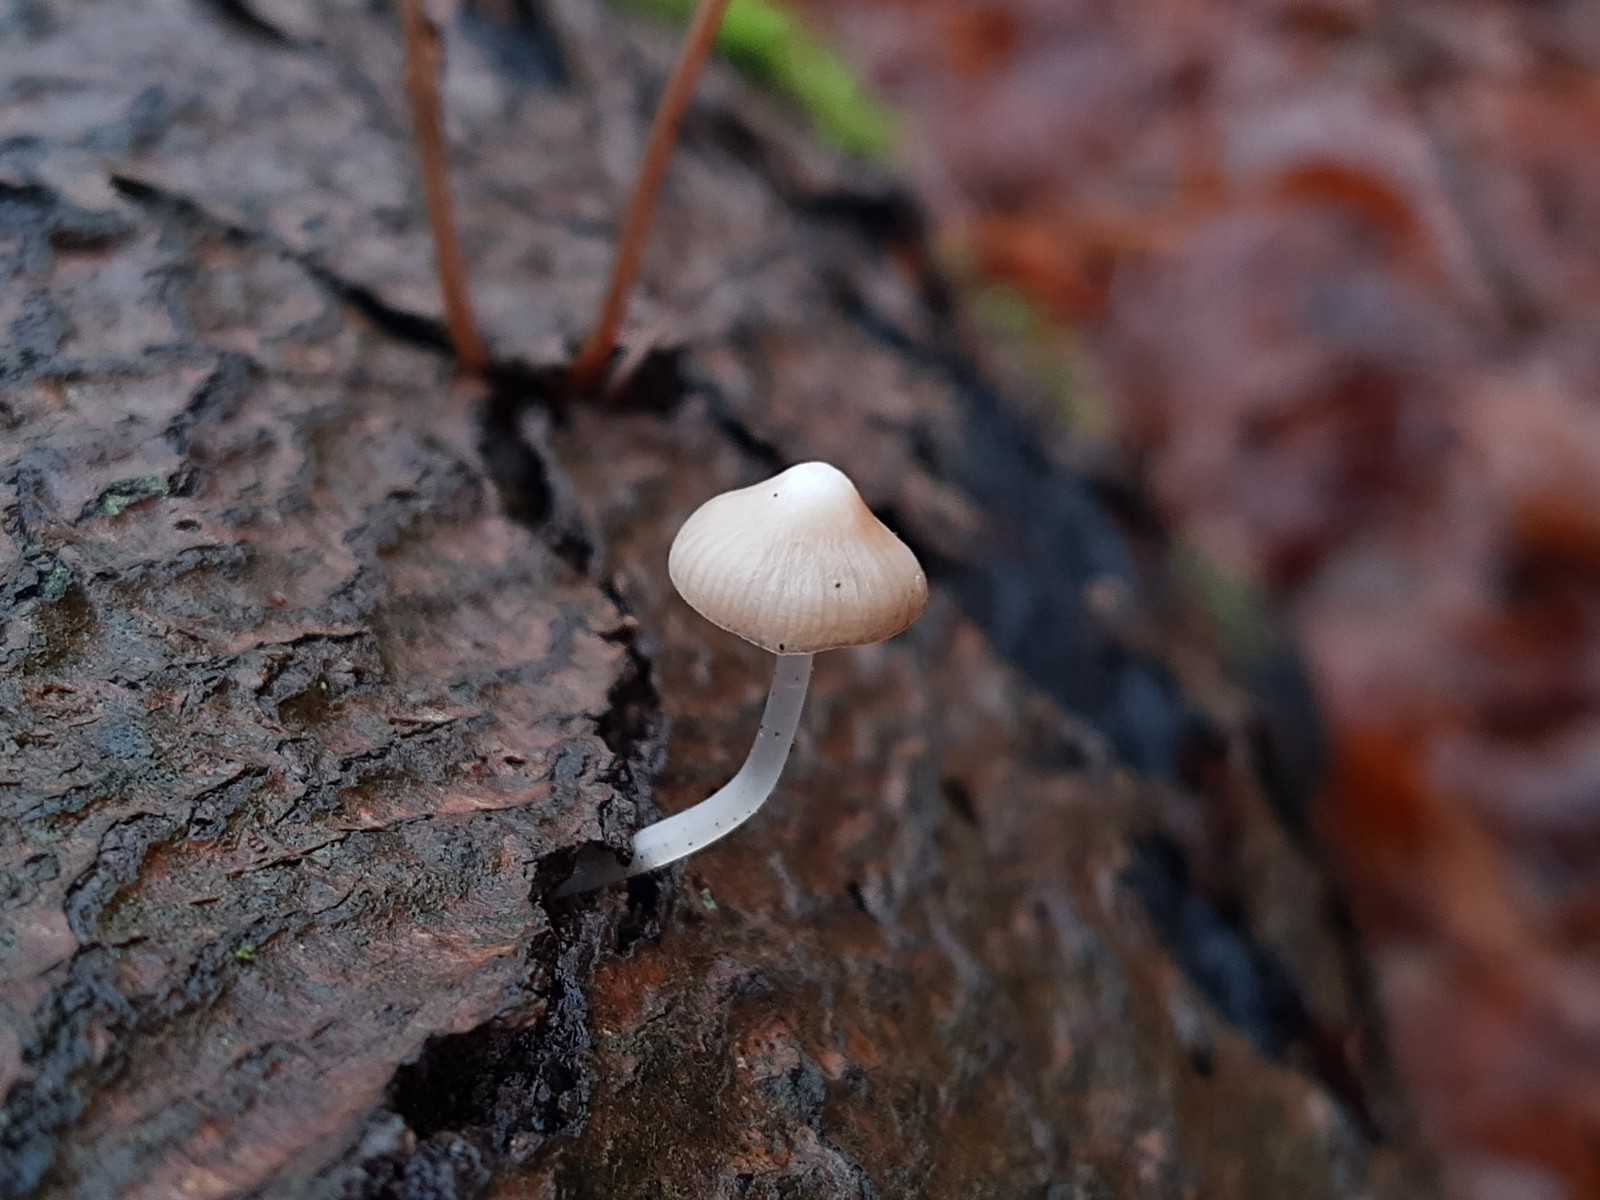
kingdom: Fungi
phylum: Basidiomycota
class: Agaricomycetes
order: Agaricales
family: Mycenaceae
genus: Mycena
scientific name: Mycena vitilis
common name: blankstokket huesvamp
